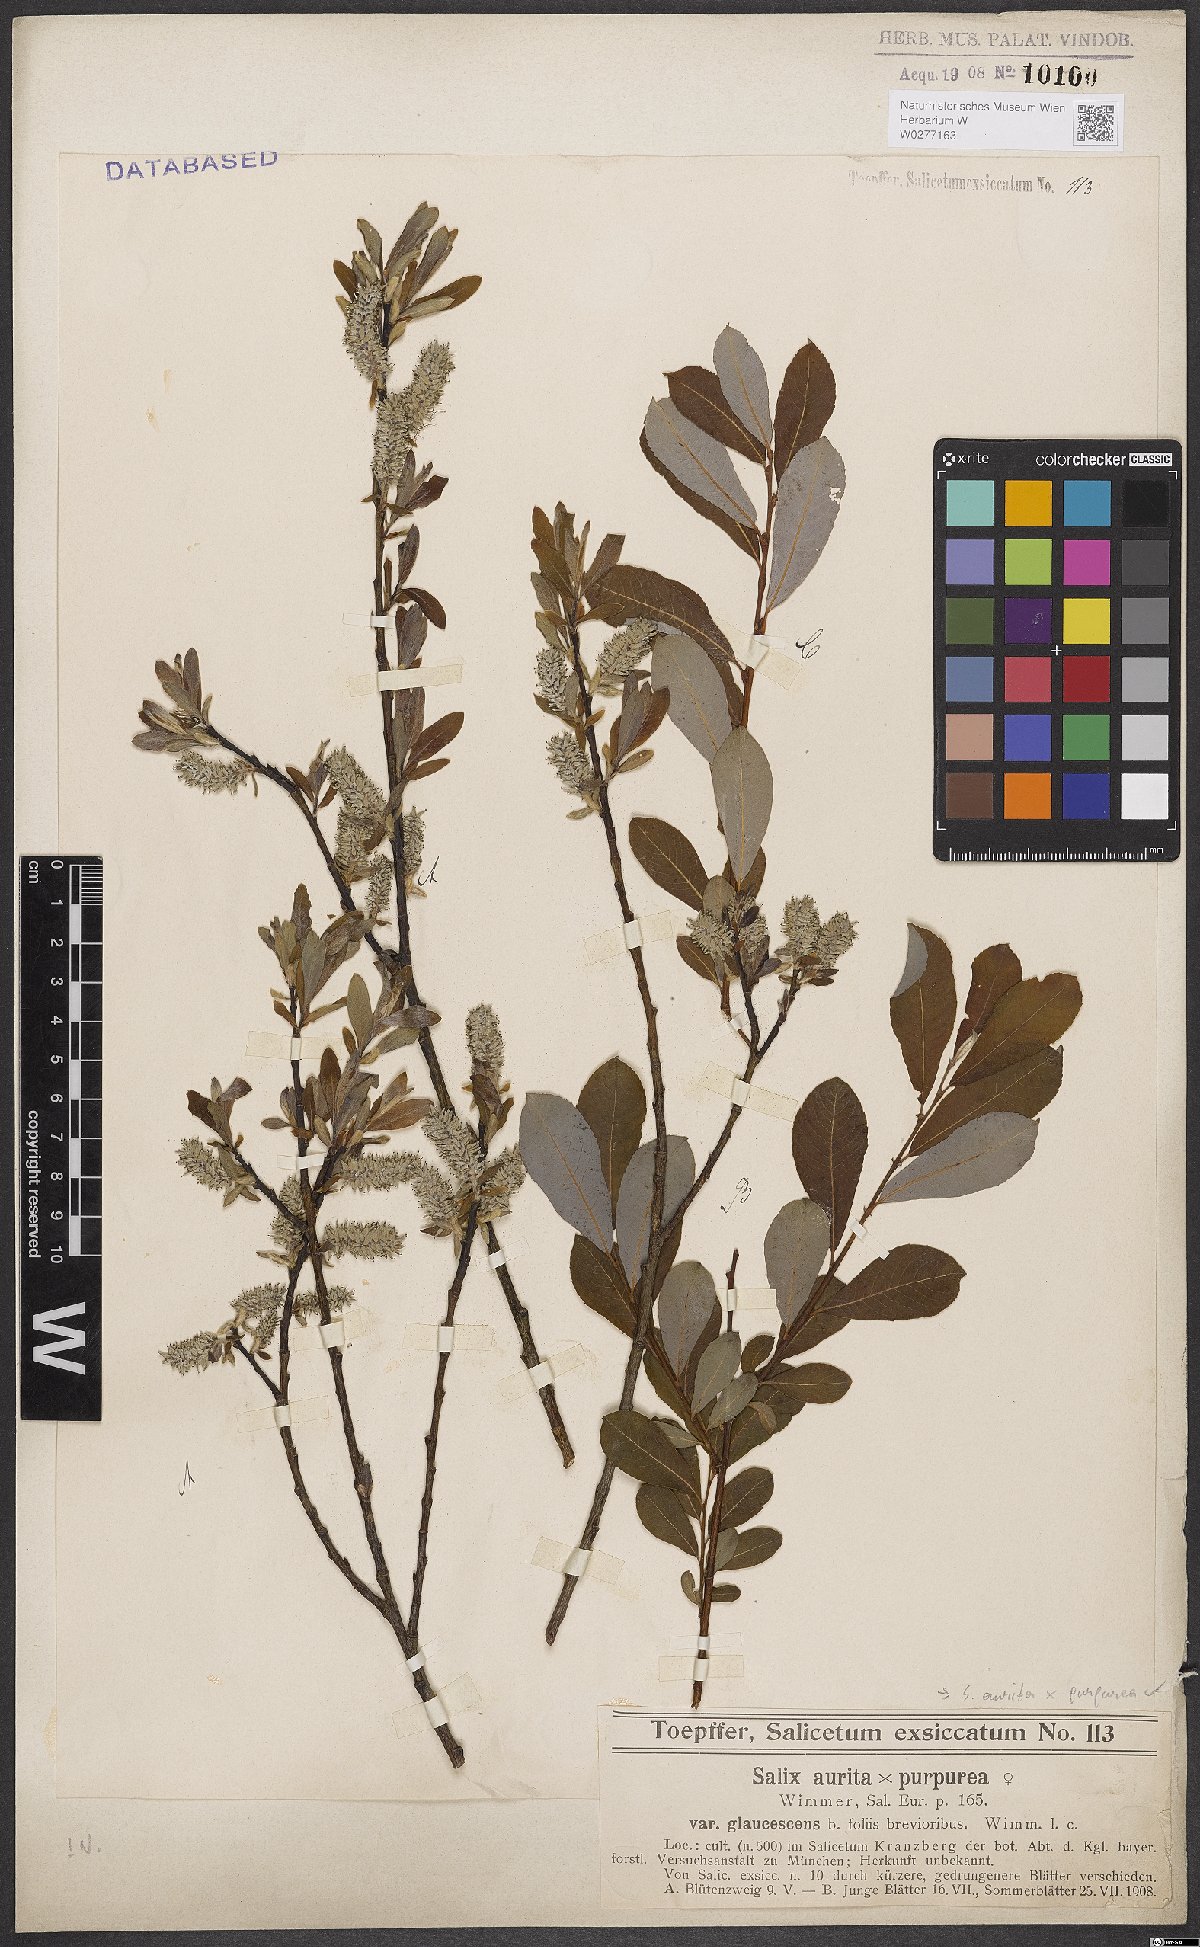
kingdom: Plantae
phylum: Tracheophyta
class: Magnoliopsida
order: Malpighiales
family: Salicaceae
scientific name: Salicaceae
